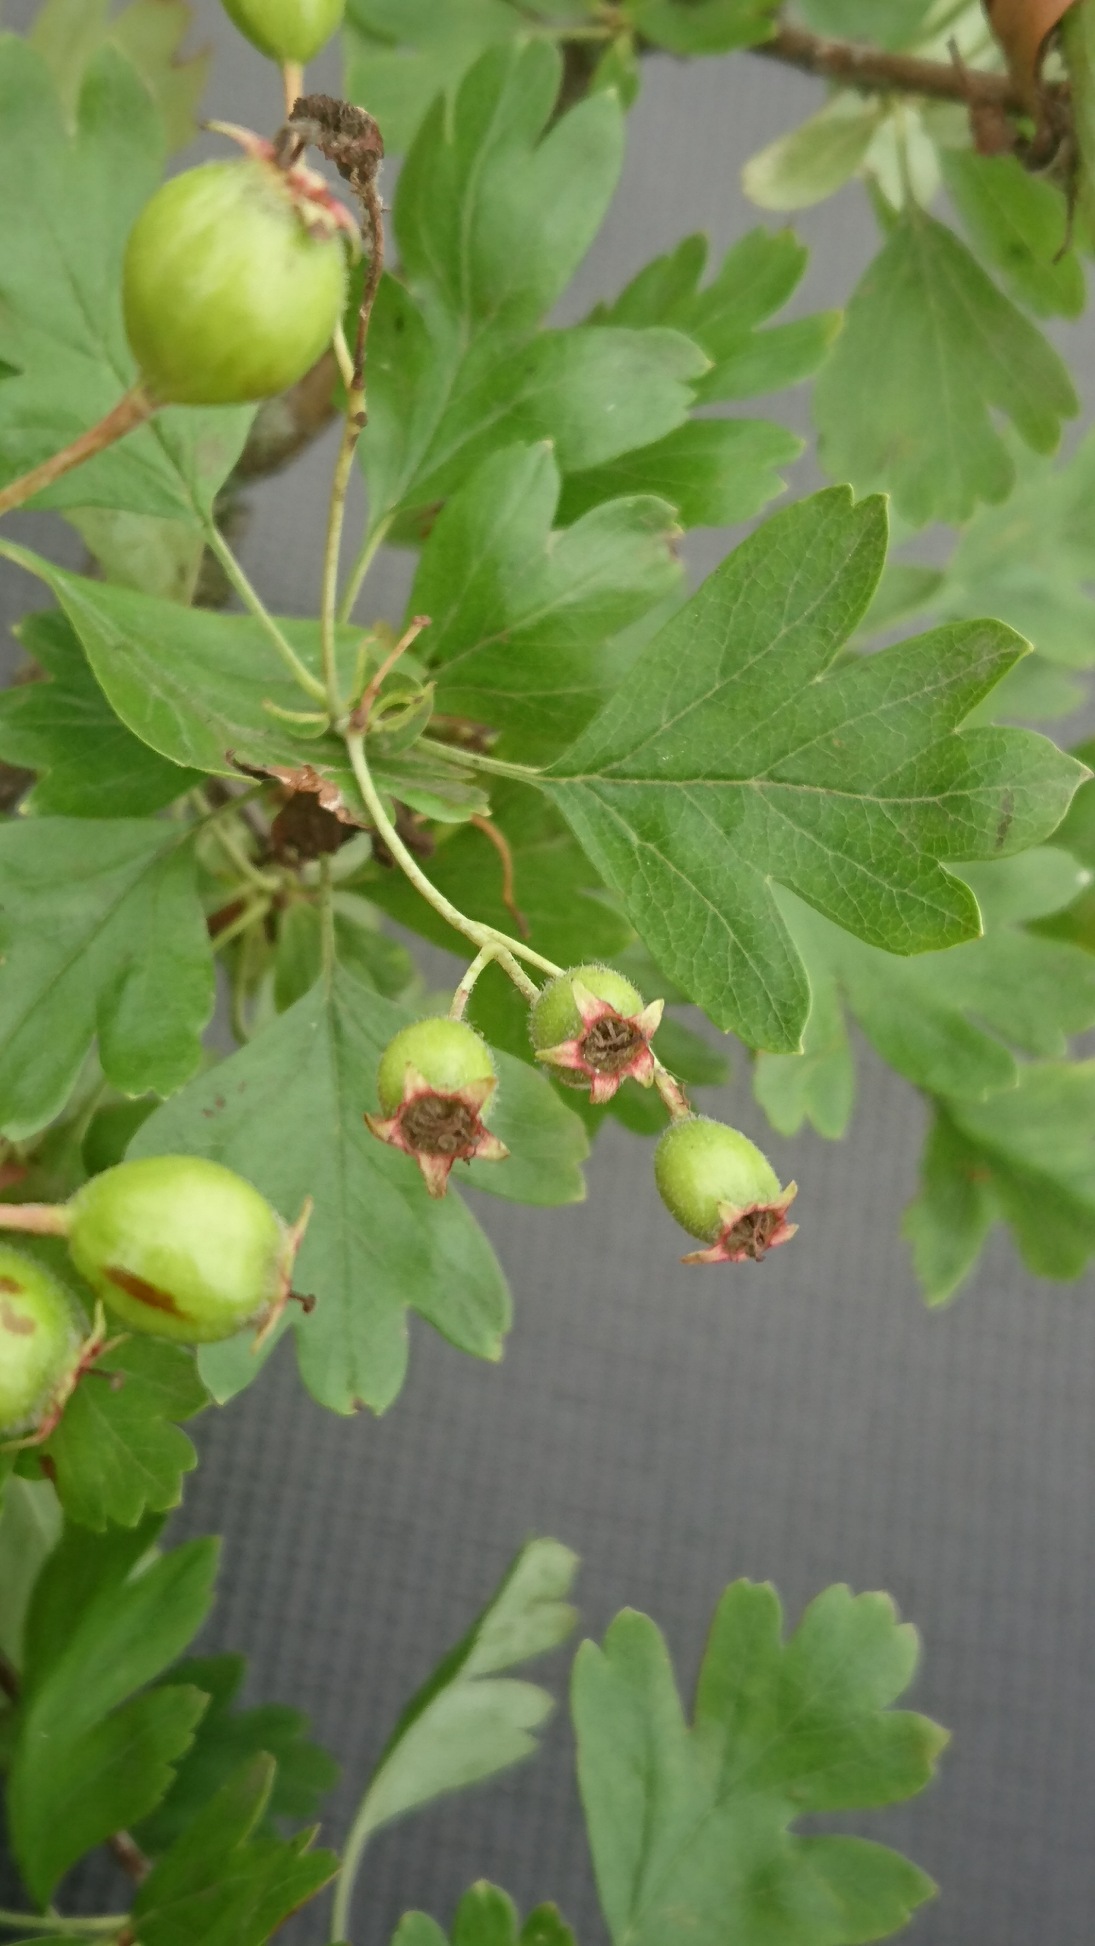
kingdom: Plantae
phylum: Tracheophyta
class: Magnoliopsida
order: Rosales
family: Rosaceae
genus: Crataegus
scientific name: Crataegus monogyna
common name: Engriflet hvidtjørn
